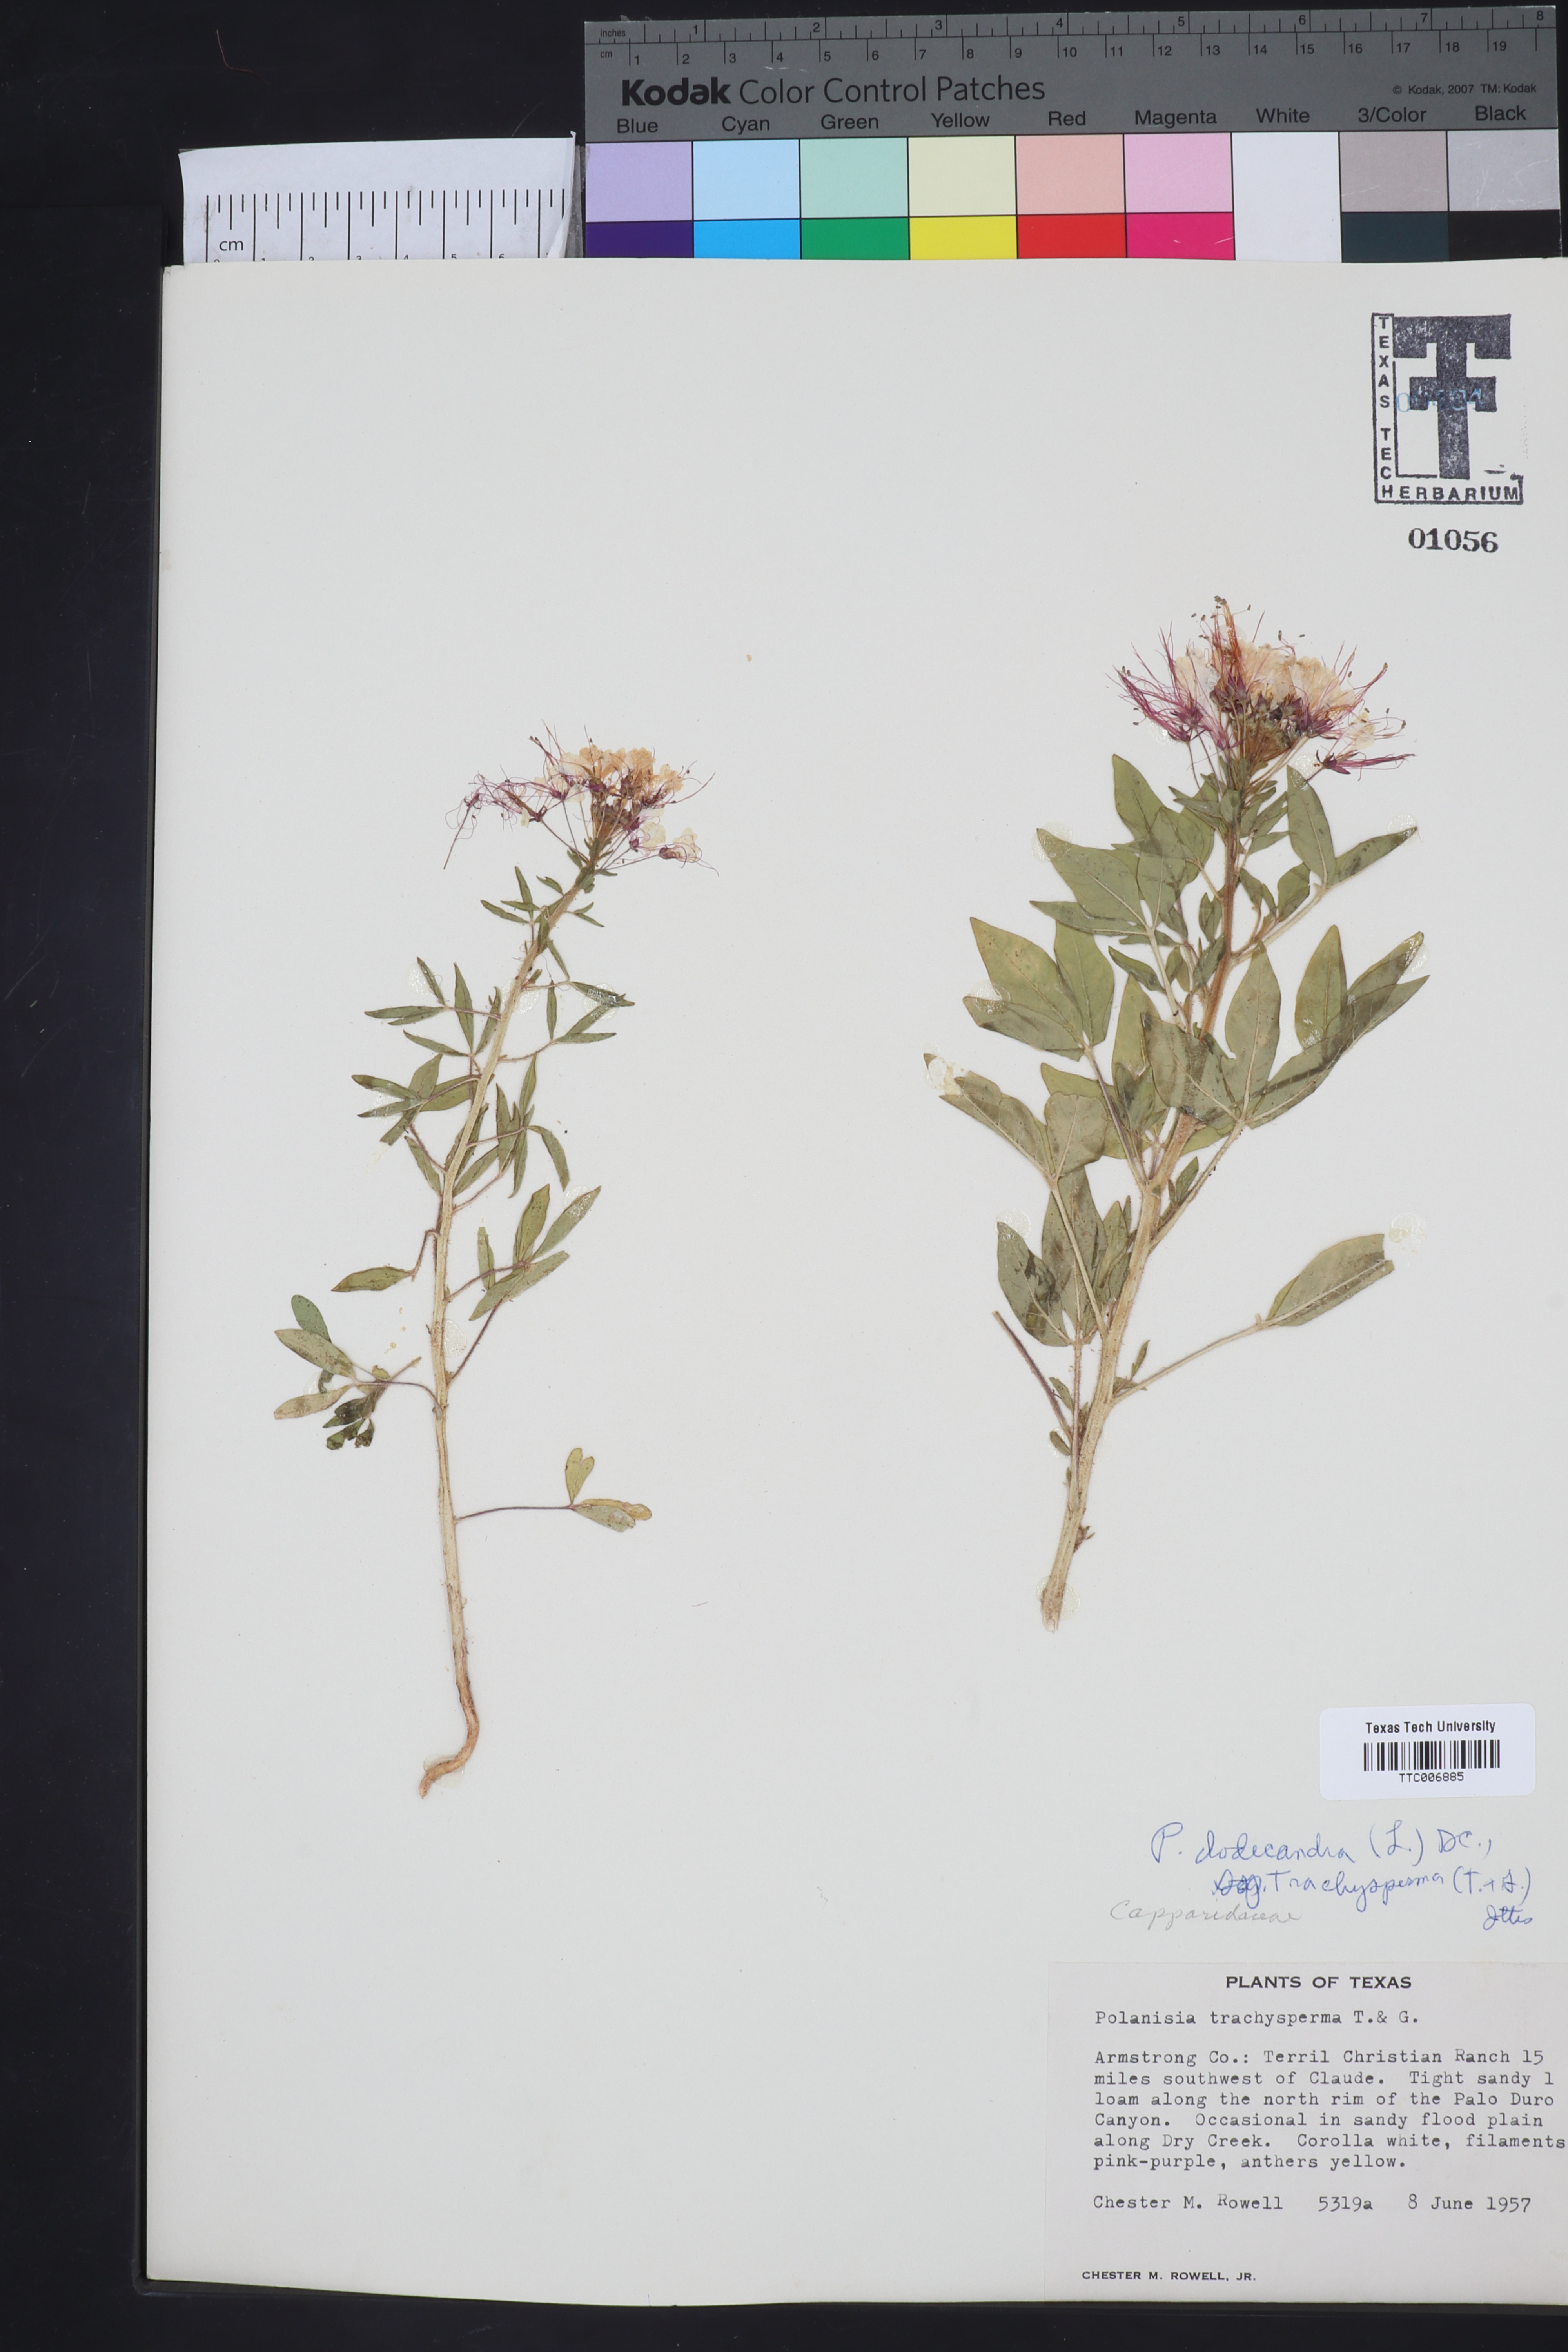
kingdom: Plantae
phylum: Tracheophyta
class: Magnoliopsida
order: Brassicales
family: Cleomaceae
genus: Polanisia
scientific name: Polanisia dodecandra
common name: Clammyweed
